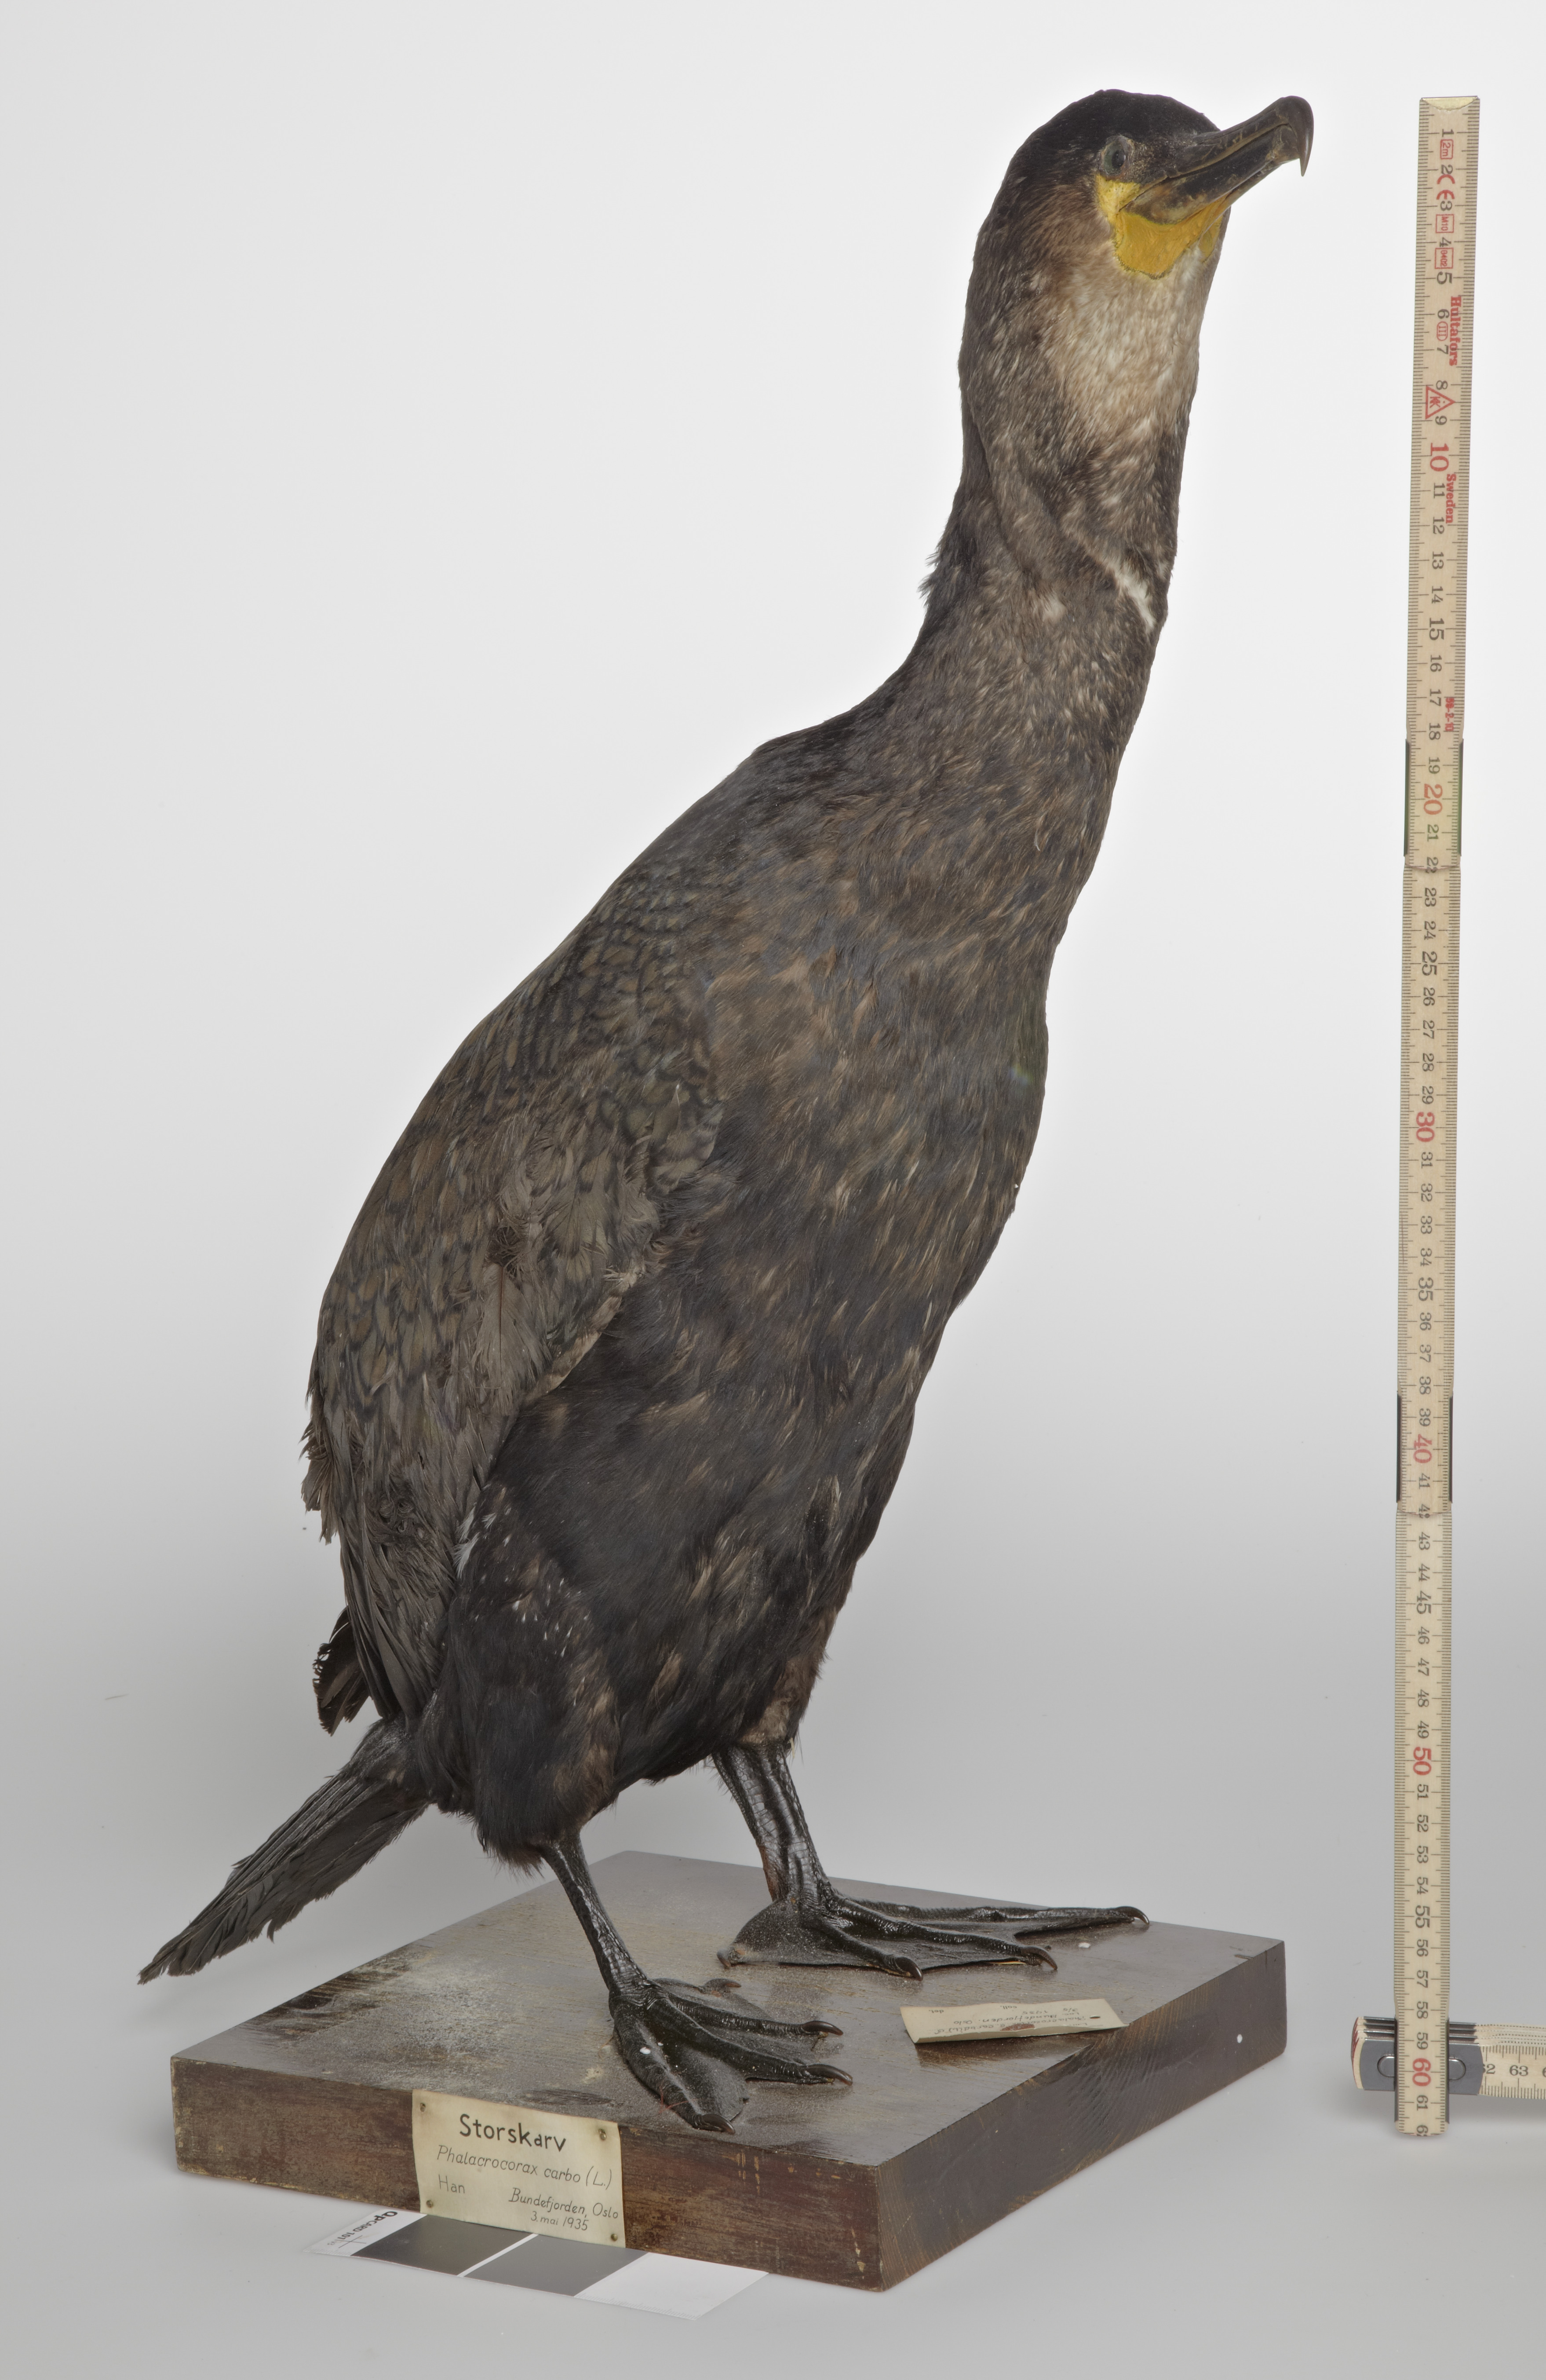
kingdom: Animalia
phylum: Chordata
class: Aves
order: Suliformes
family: Phalacrocoracidae
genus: Phalacrocorax
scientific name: Phalacrocorax carbo
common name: Great cormorant
